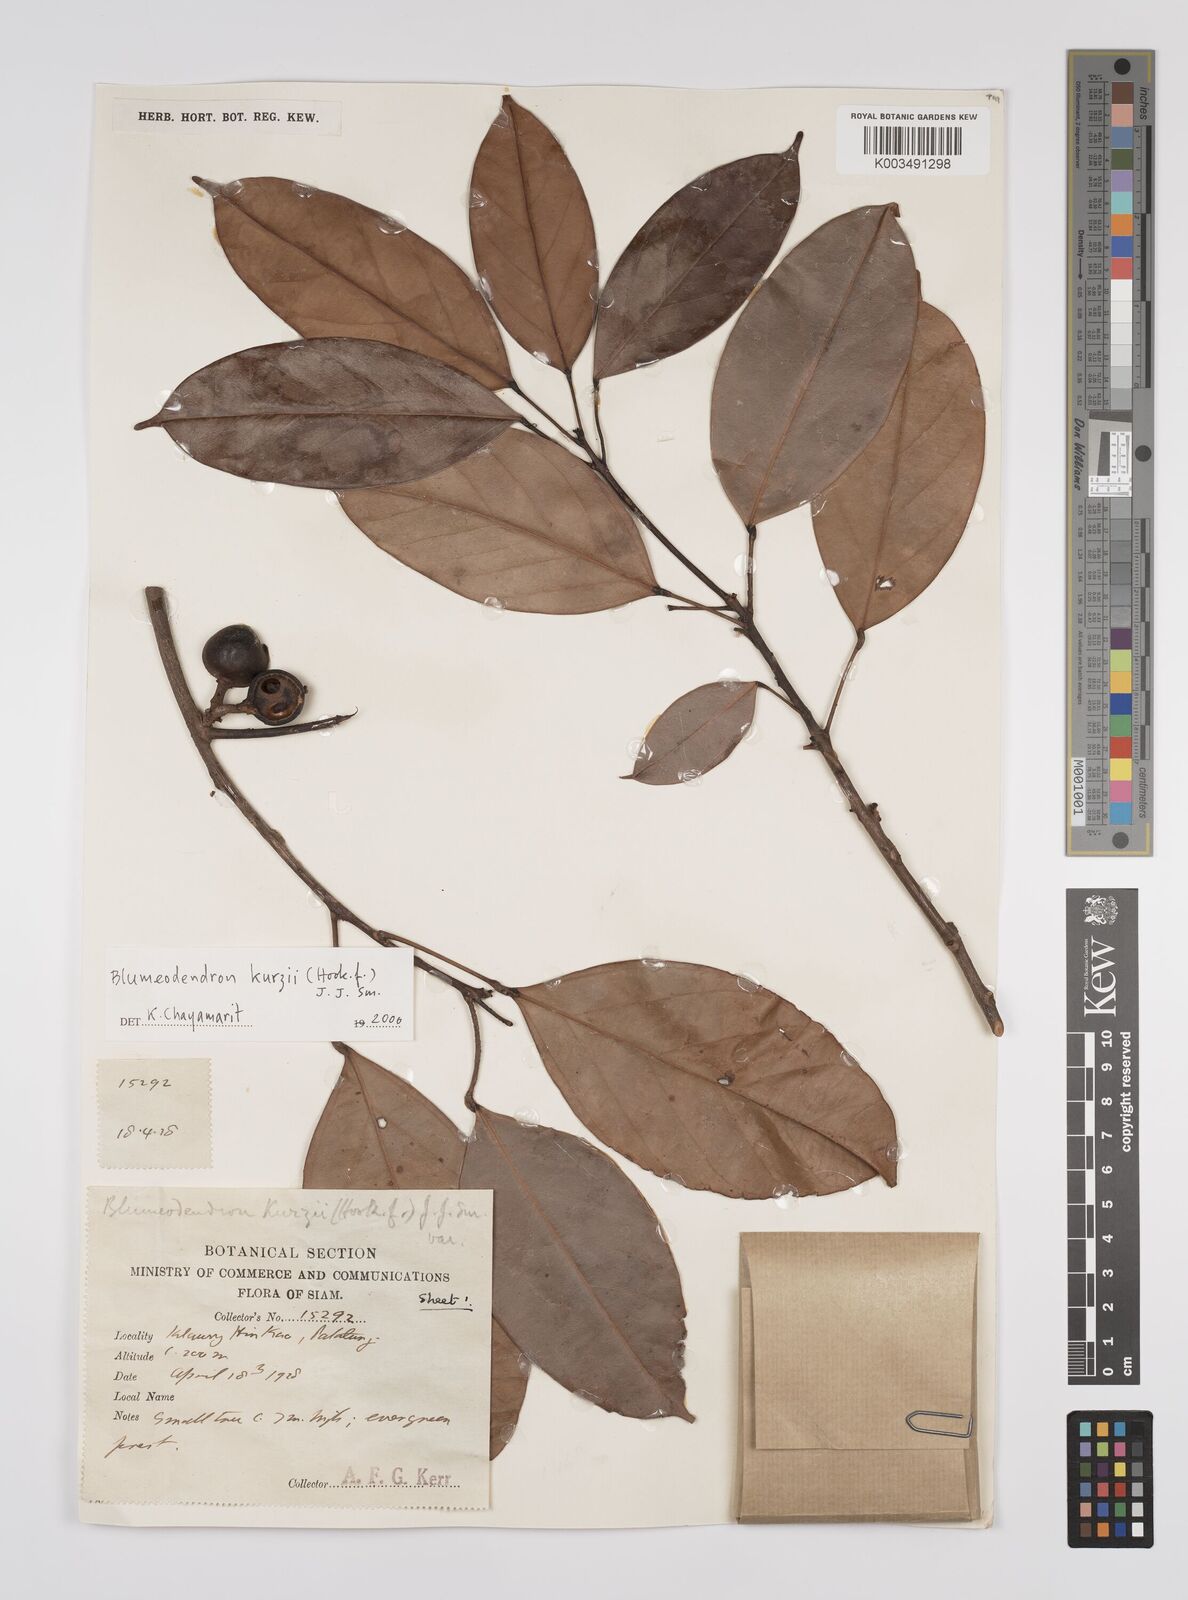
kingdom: Plantae
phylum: Tracheophyta
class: Magnoliopsida
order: Malpighiales
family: Euphorbiaceae
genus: Blumeodendron
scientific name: Blumeodendron kurzii
